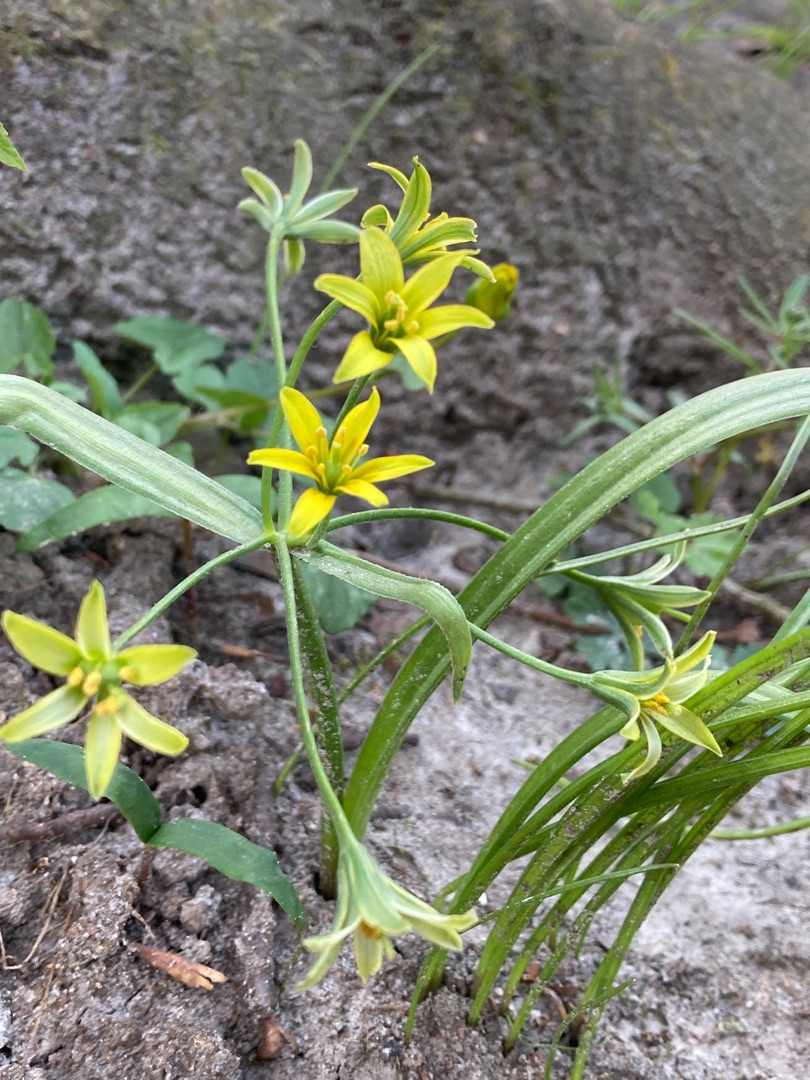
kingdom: Plantae
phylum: Tracheophyta
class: Liliopsida
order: Liliales
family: Liliaceae
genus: Gagea
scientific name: Gagea lutea
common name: Almindelig guldstjerne
